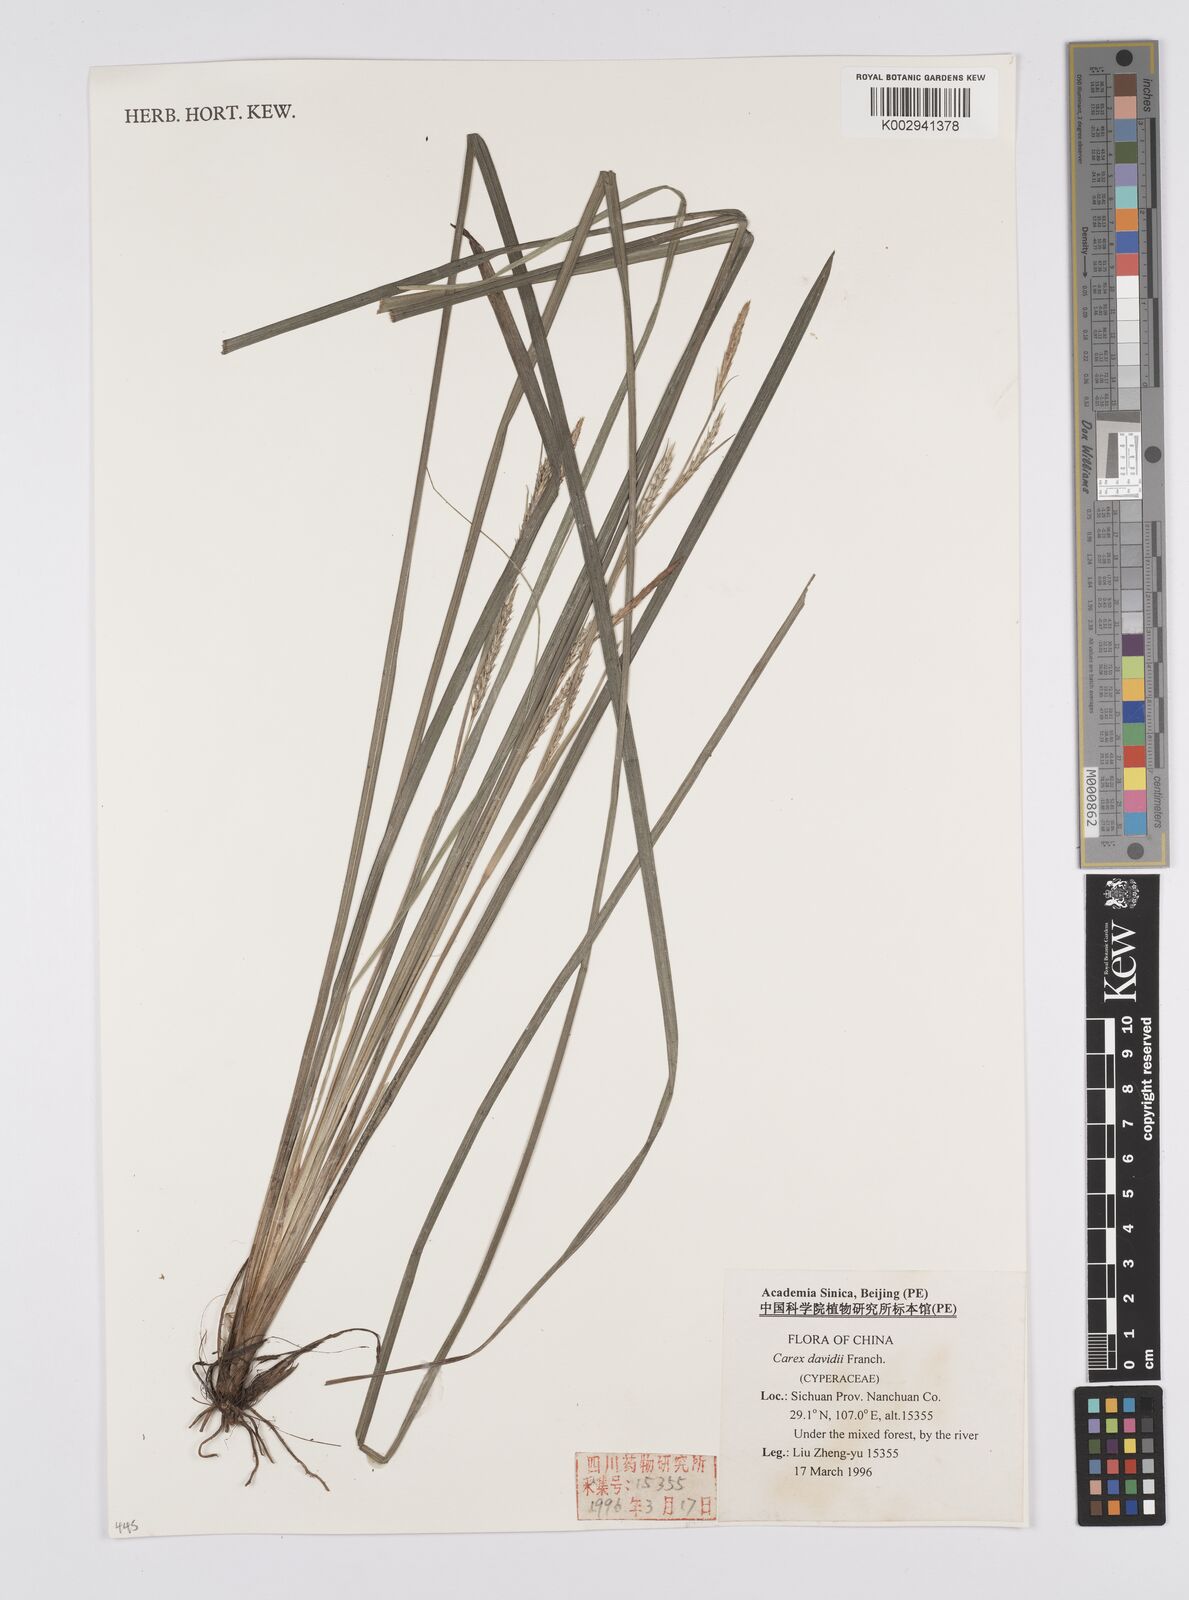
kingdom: Plantae
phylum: Tracheophyta
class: Liliopsida
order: Poales
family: Cyperaceae
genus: Carex
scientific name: Carex davidii
